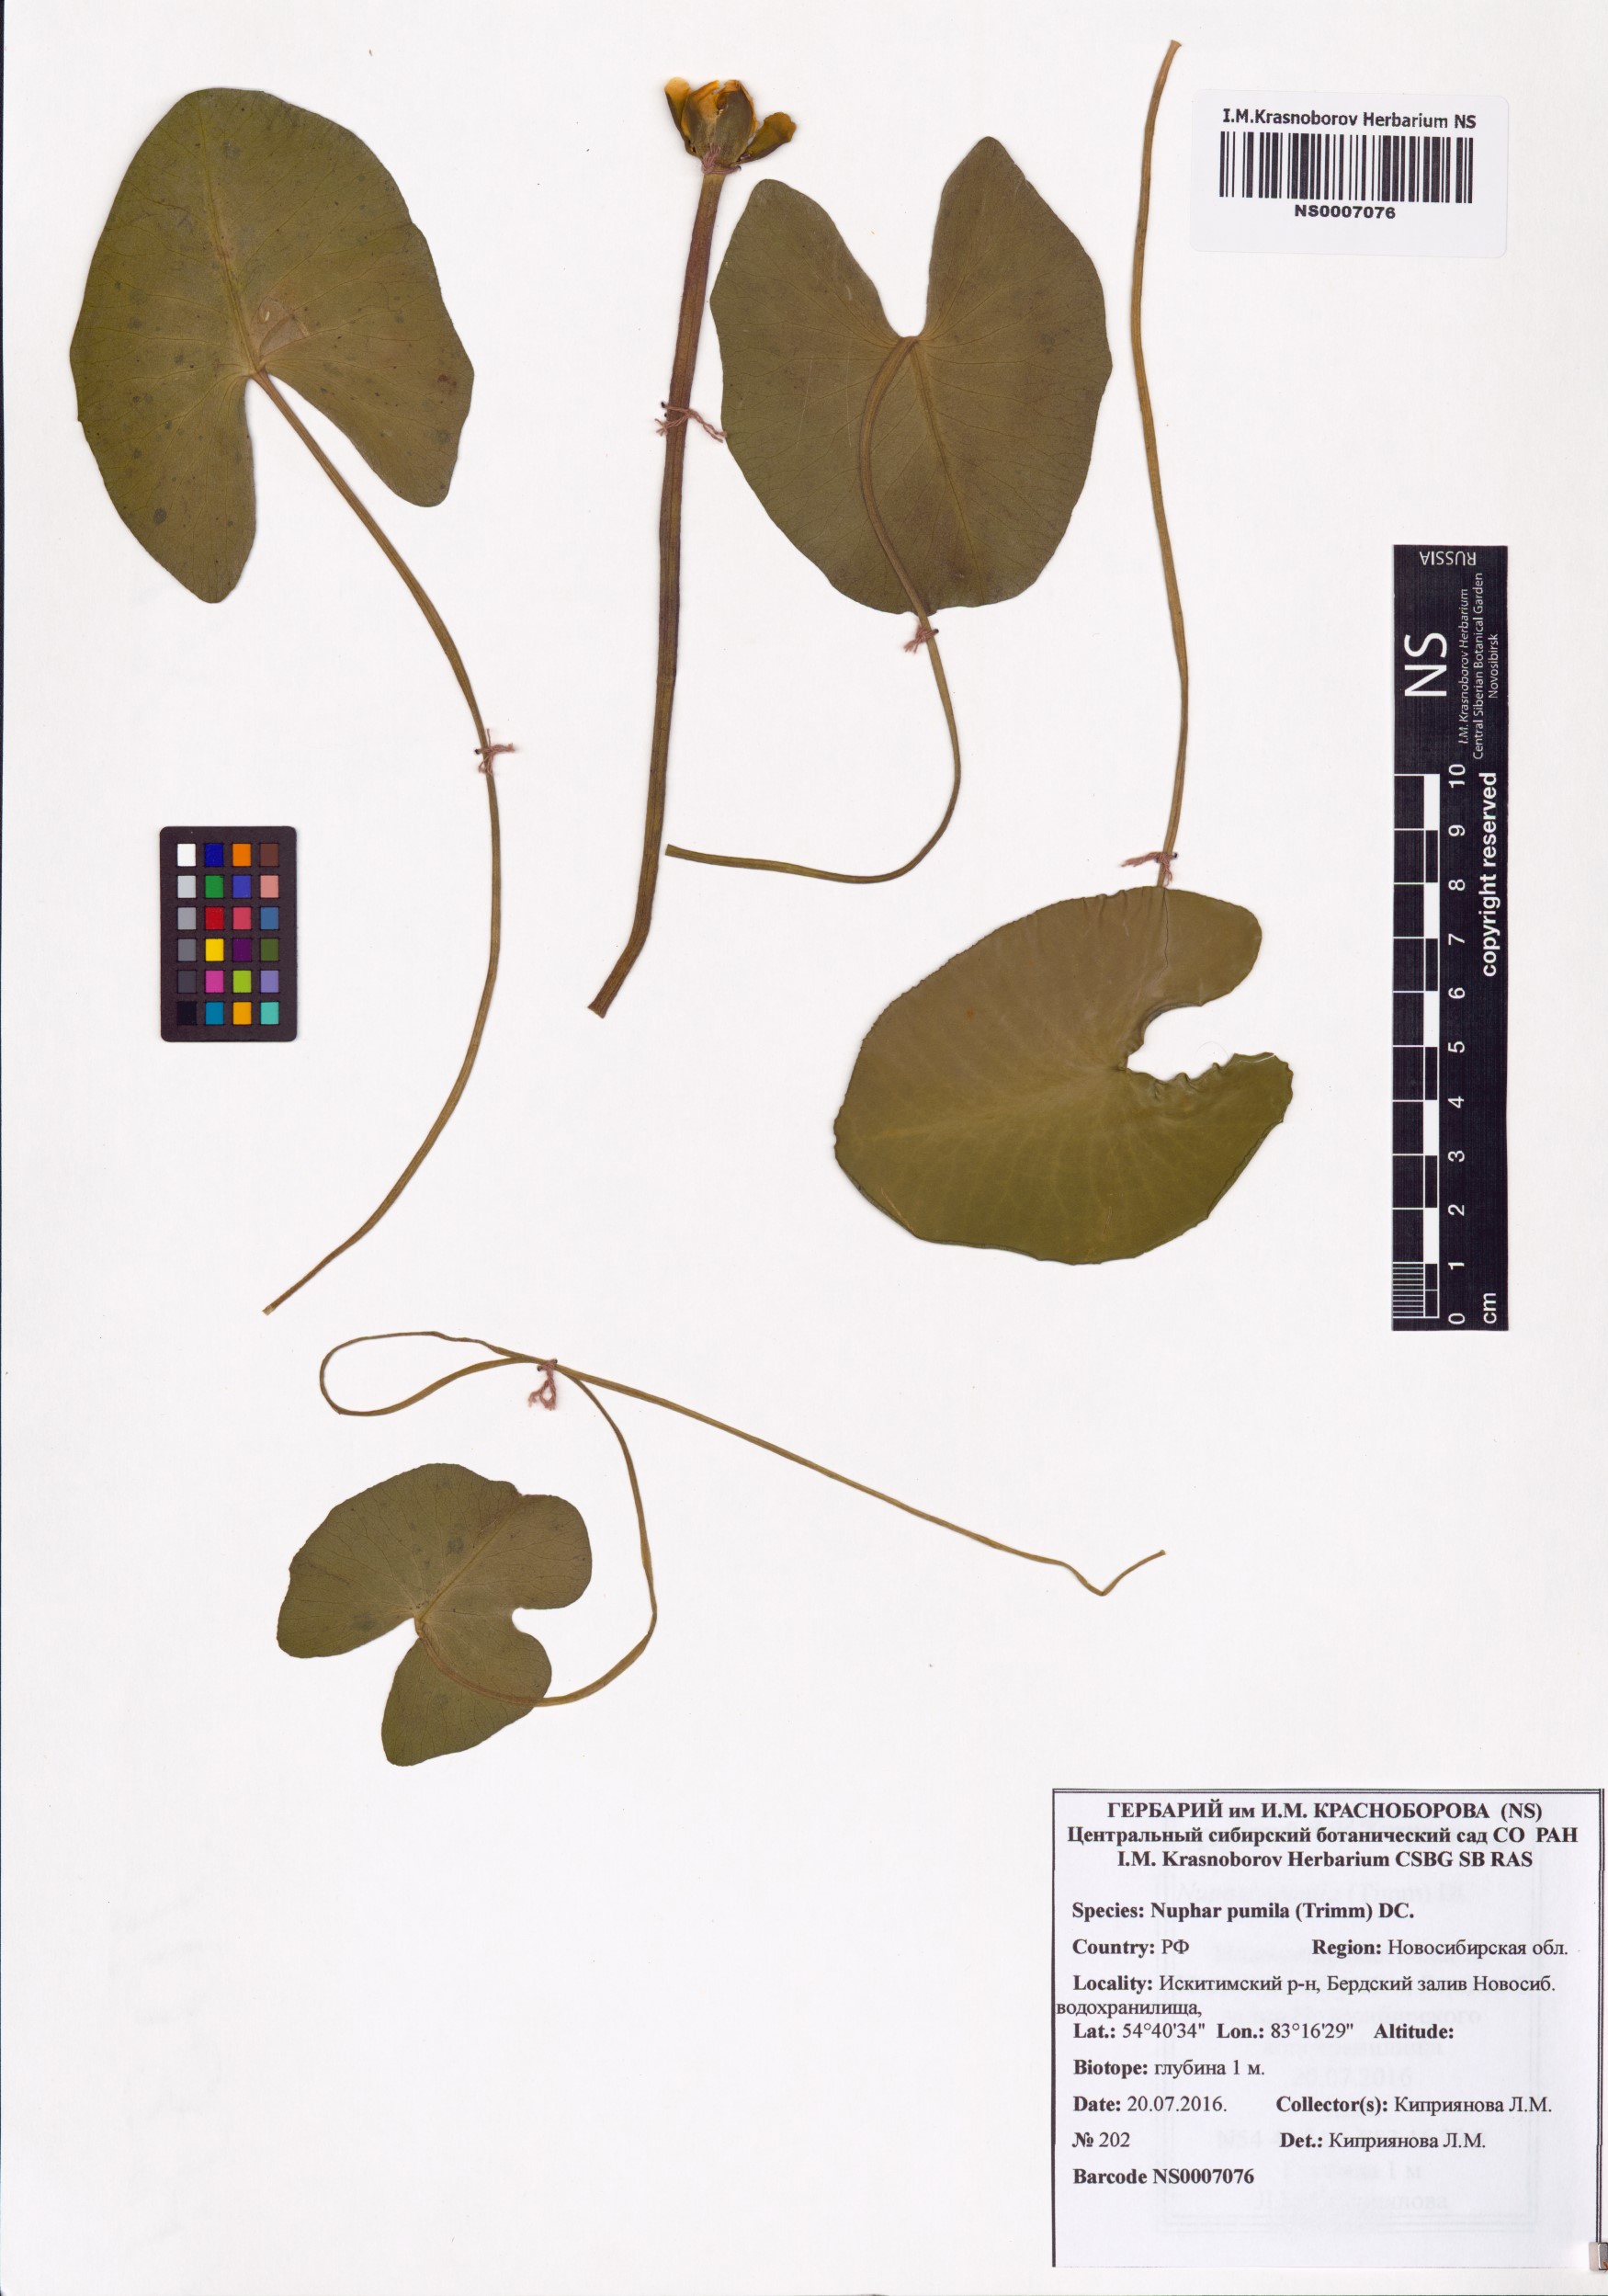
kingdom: Plantae
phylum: Tracheophyta
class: Magnoliopsida
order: Nymphaeales
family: Nymphaeaceae
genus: Nuphar
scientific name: Nuphar pumila
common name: Least water-lily
